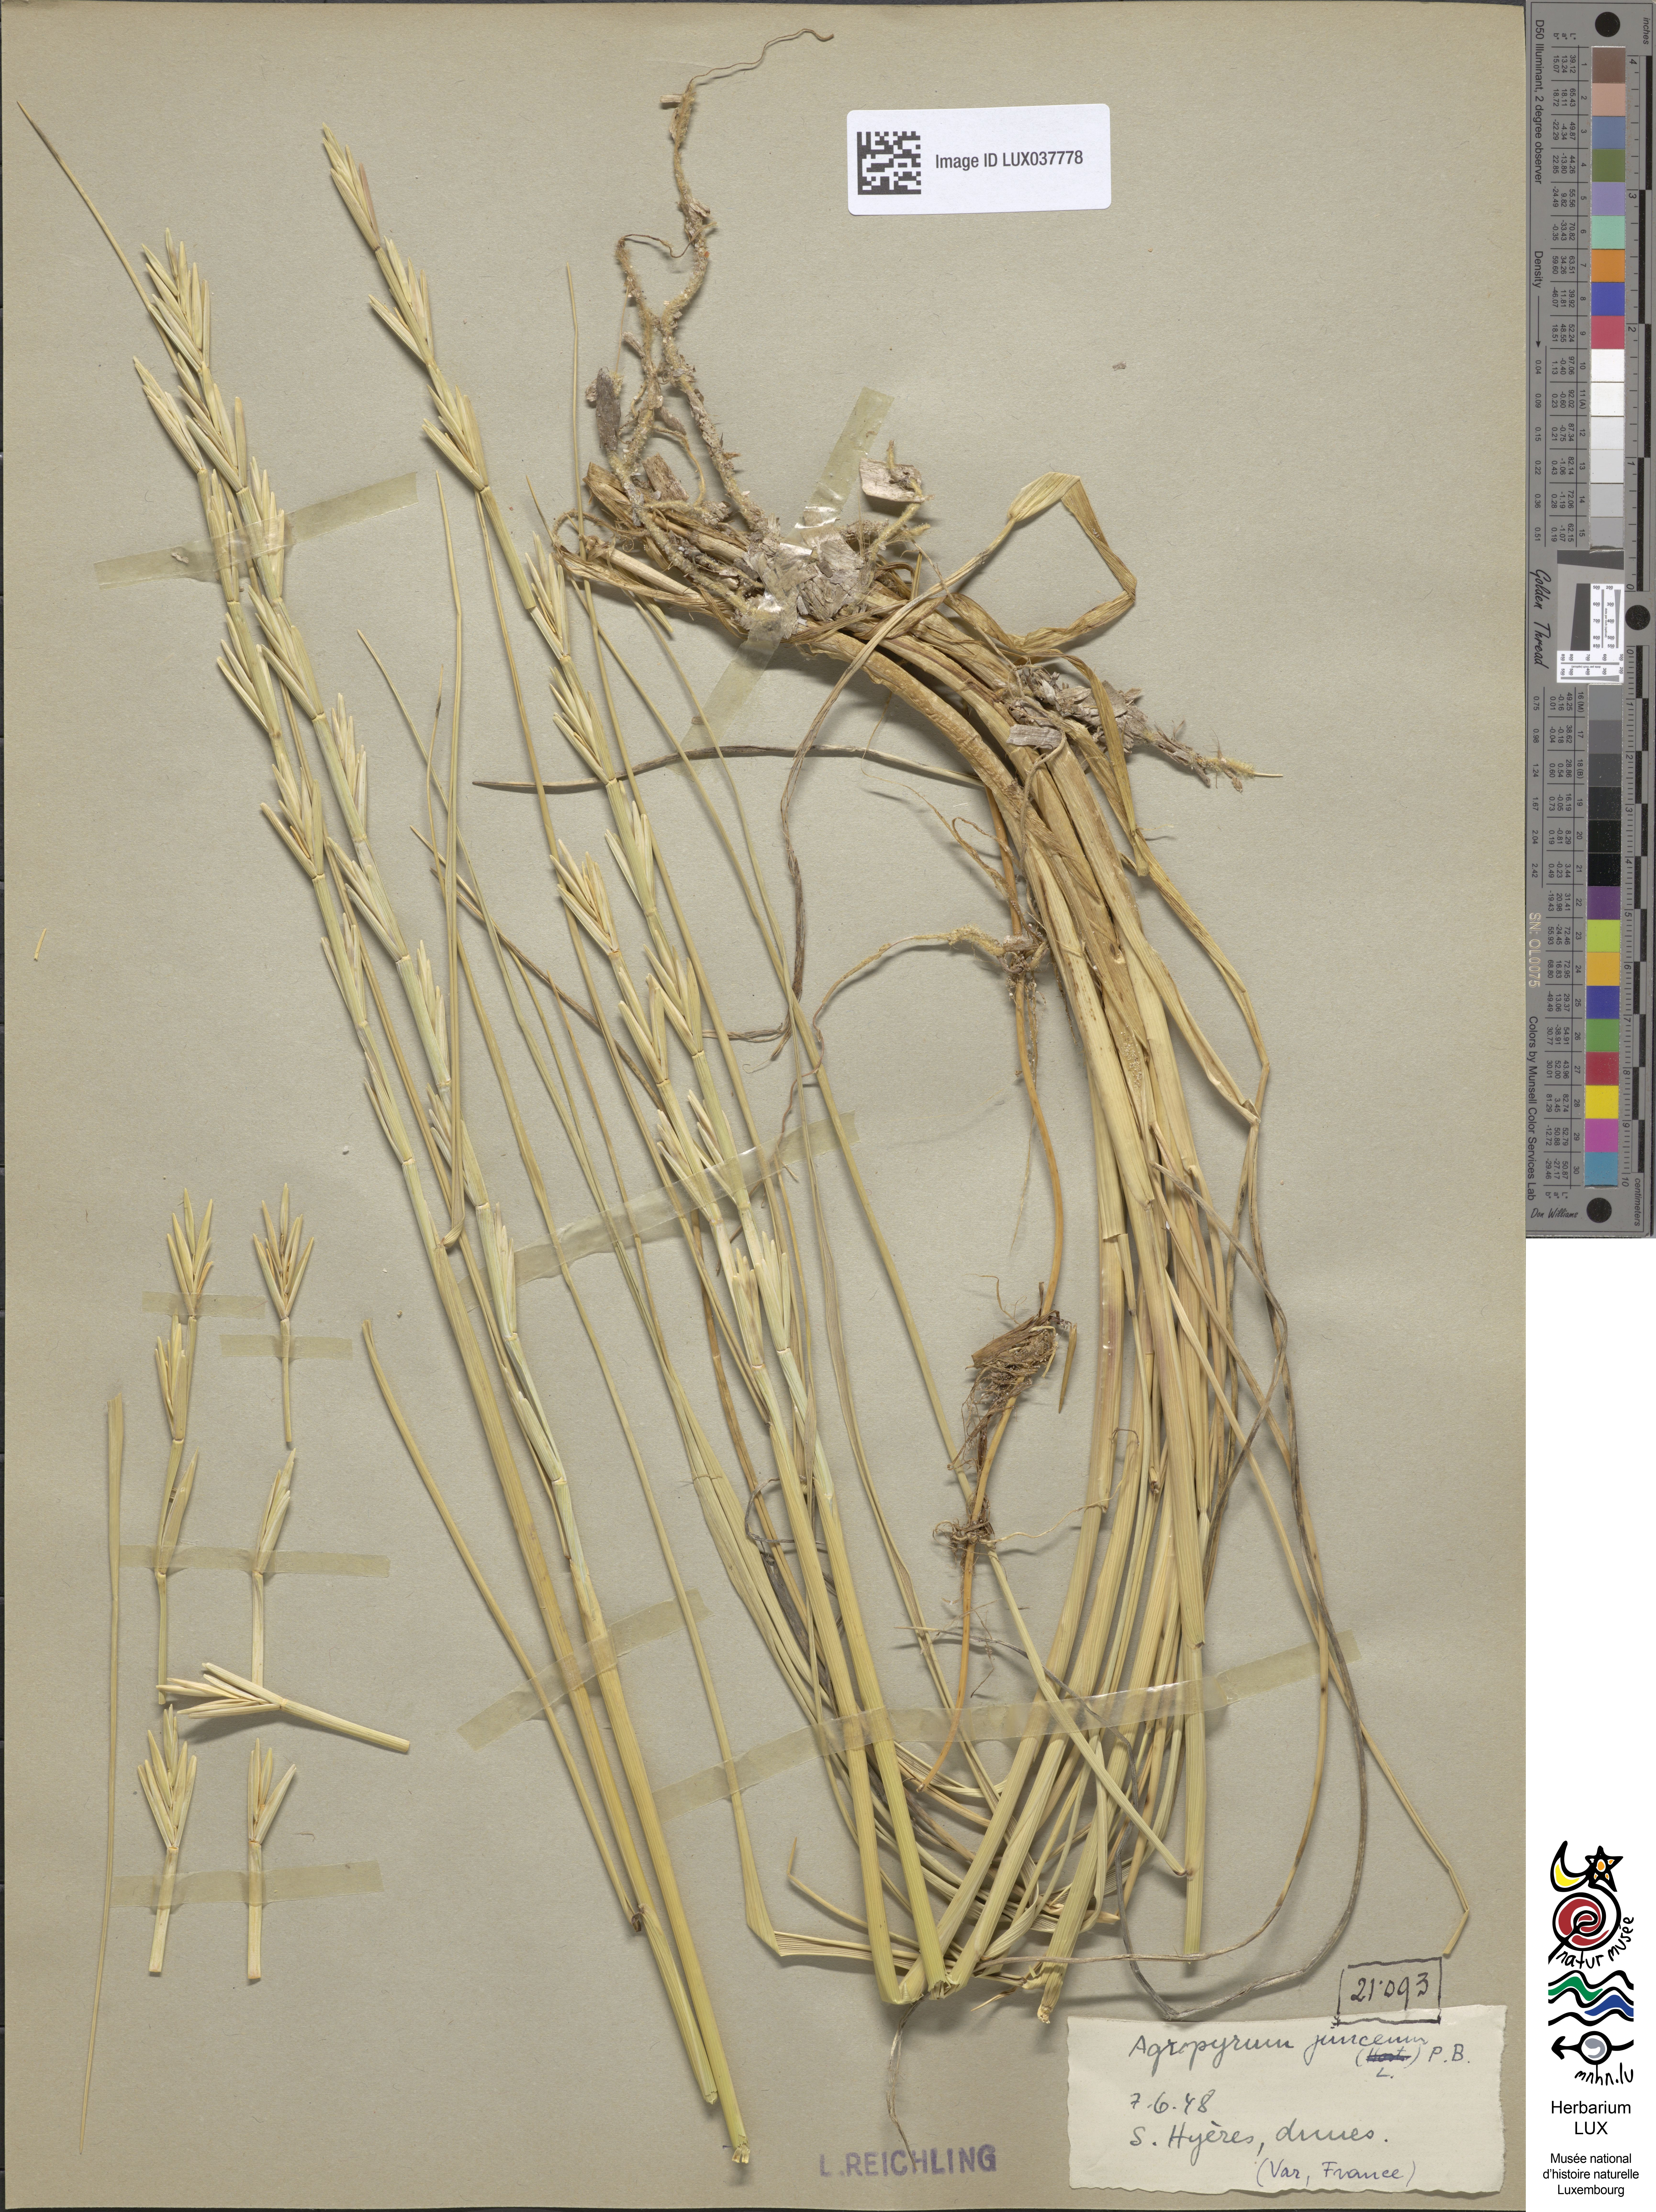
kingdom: Plantae
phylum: Tracheophyta
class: Liliopsida
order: Poales
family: Poaceae
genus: Thinopyrum
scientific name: Thinopyrum junceum
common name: Russian wheatgrass
